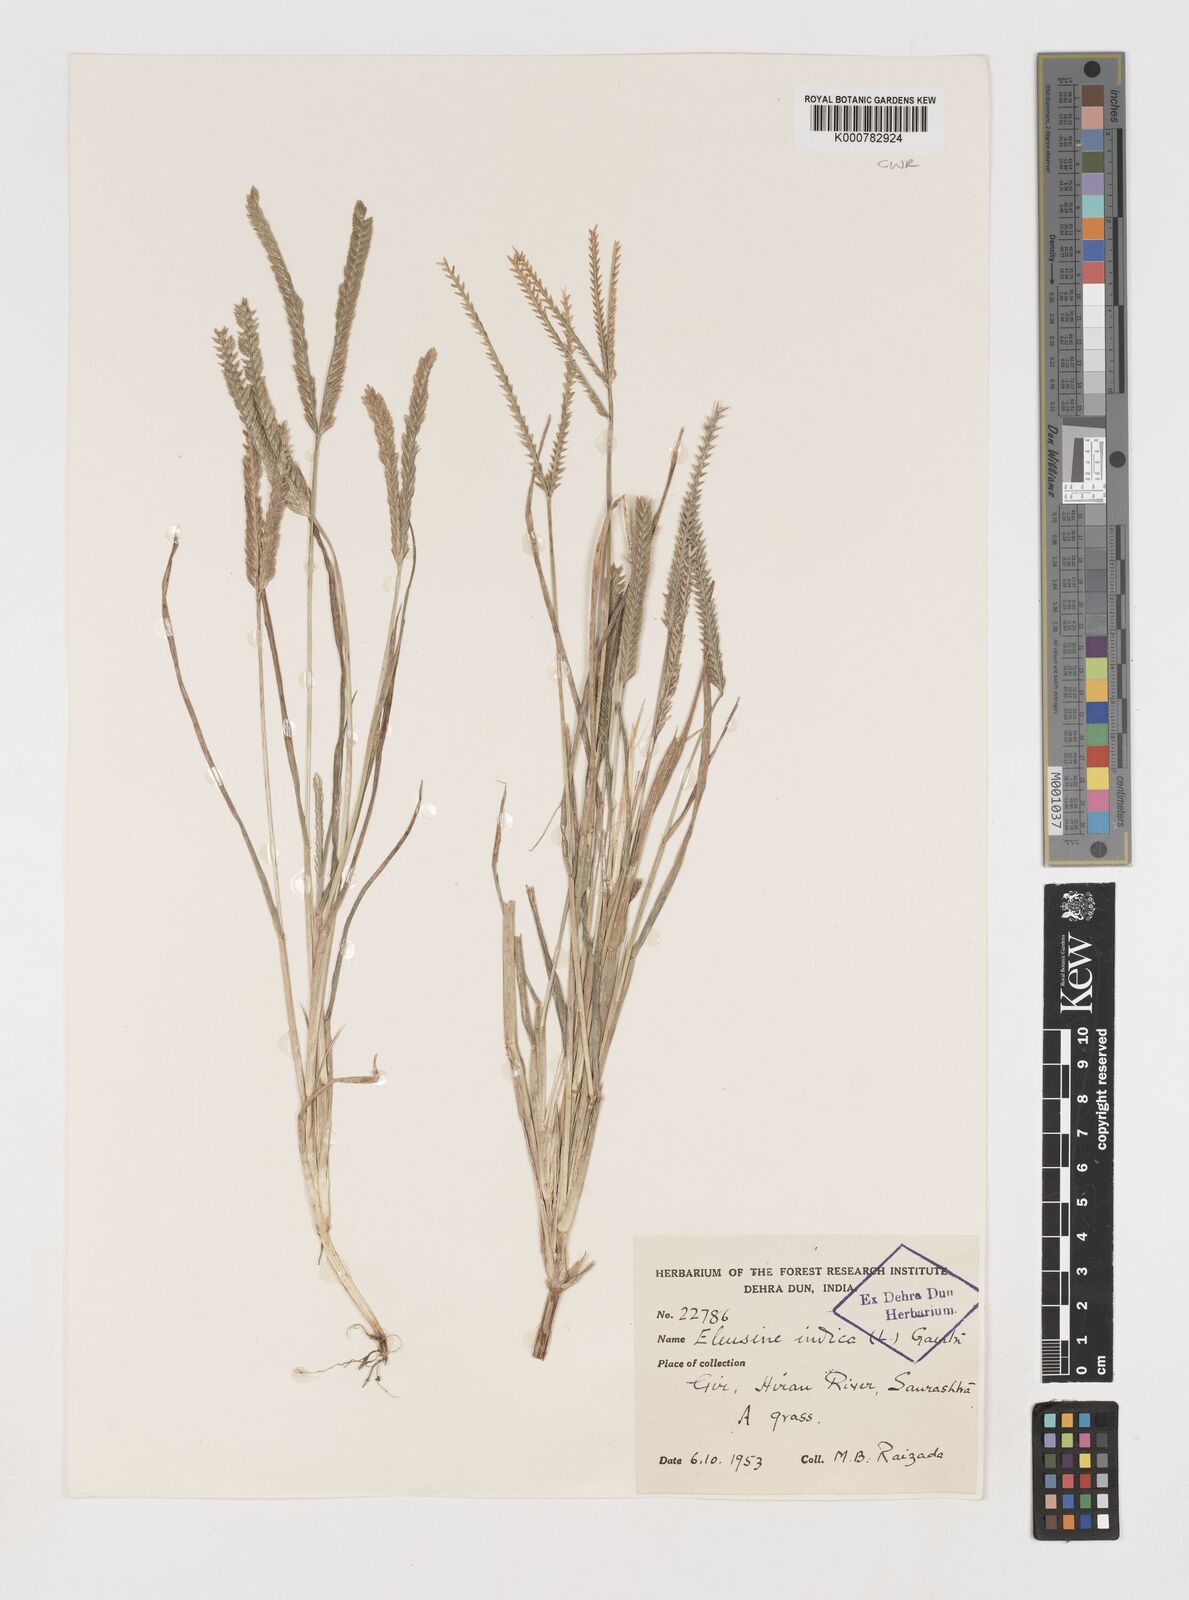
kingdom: Plantae
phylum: Tracheophyta
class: Liliopsida
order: Poales
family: Poaceae
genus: Eleusine
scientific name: Eleusine indica
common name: Yard-grass
